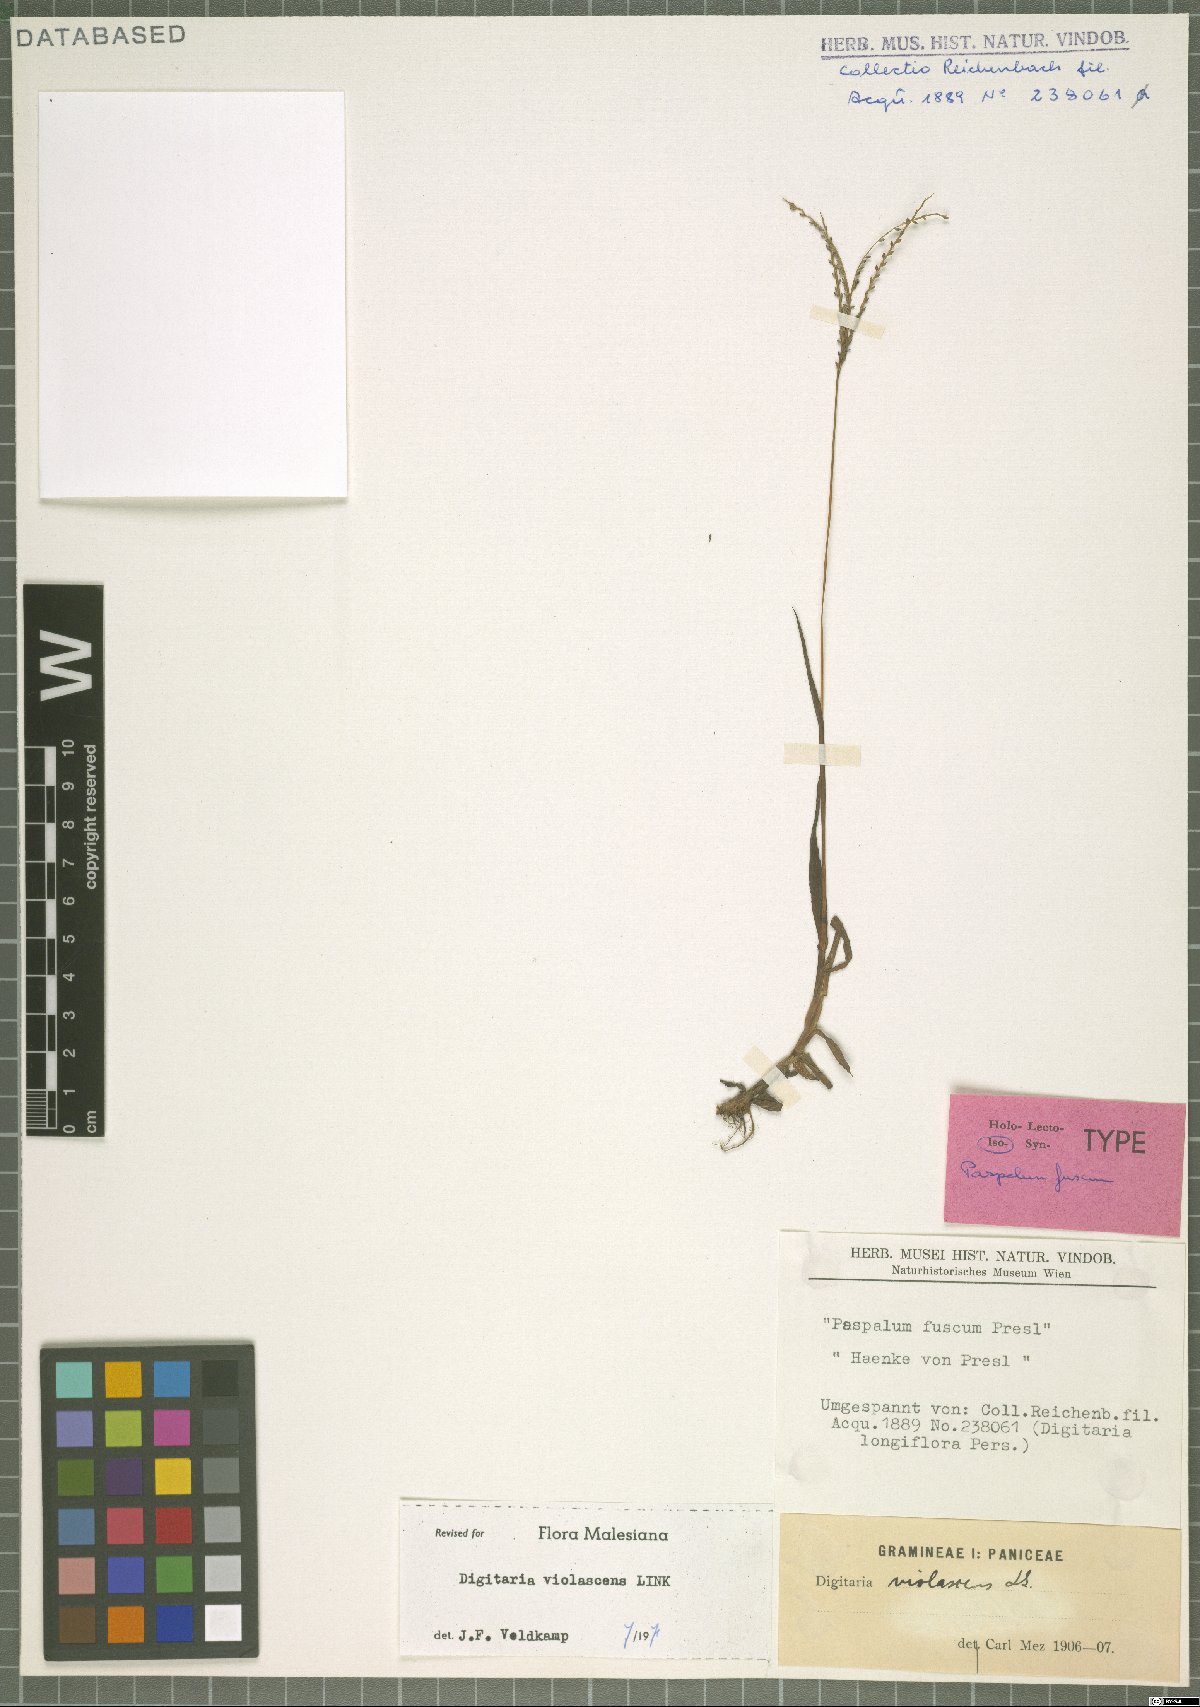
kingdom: Plantae
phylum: Tracheophyta
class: Liliopsida
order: Poales
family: Poaceae
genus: Digitaria
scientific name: Digitaria violascens
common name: Violet crabgrass
